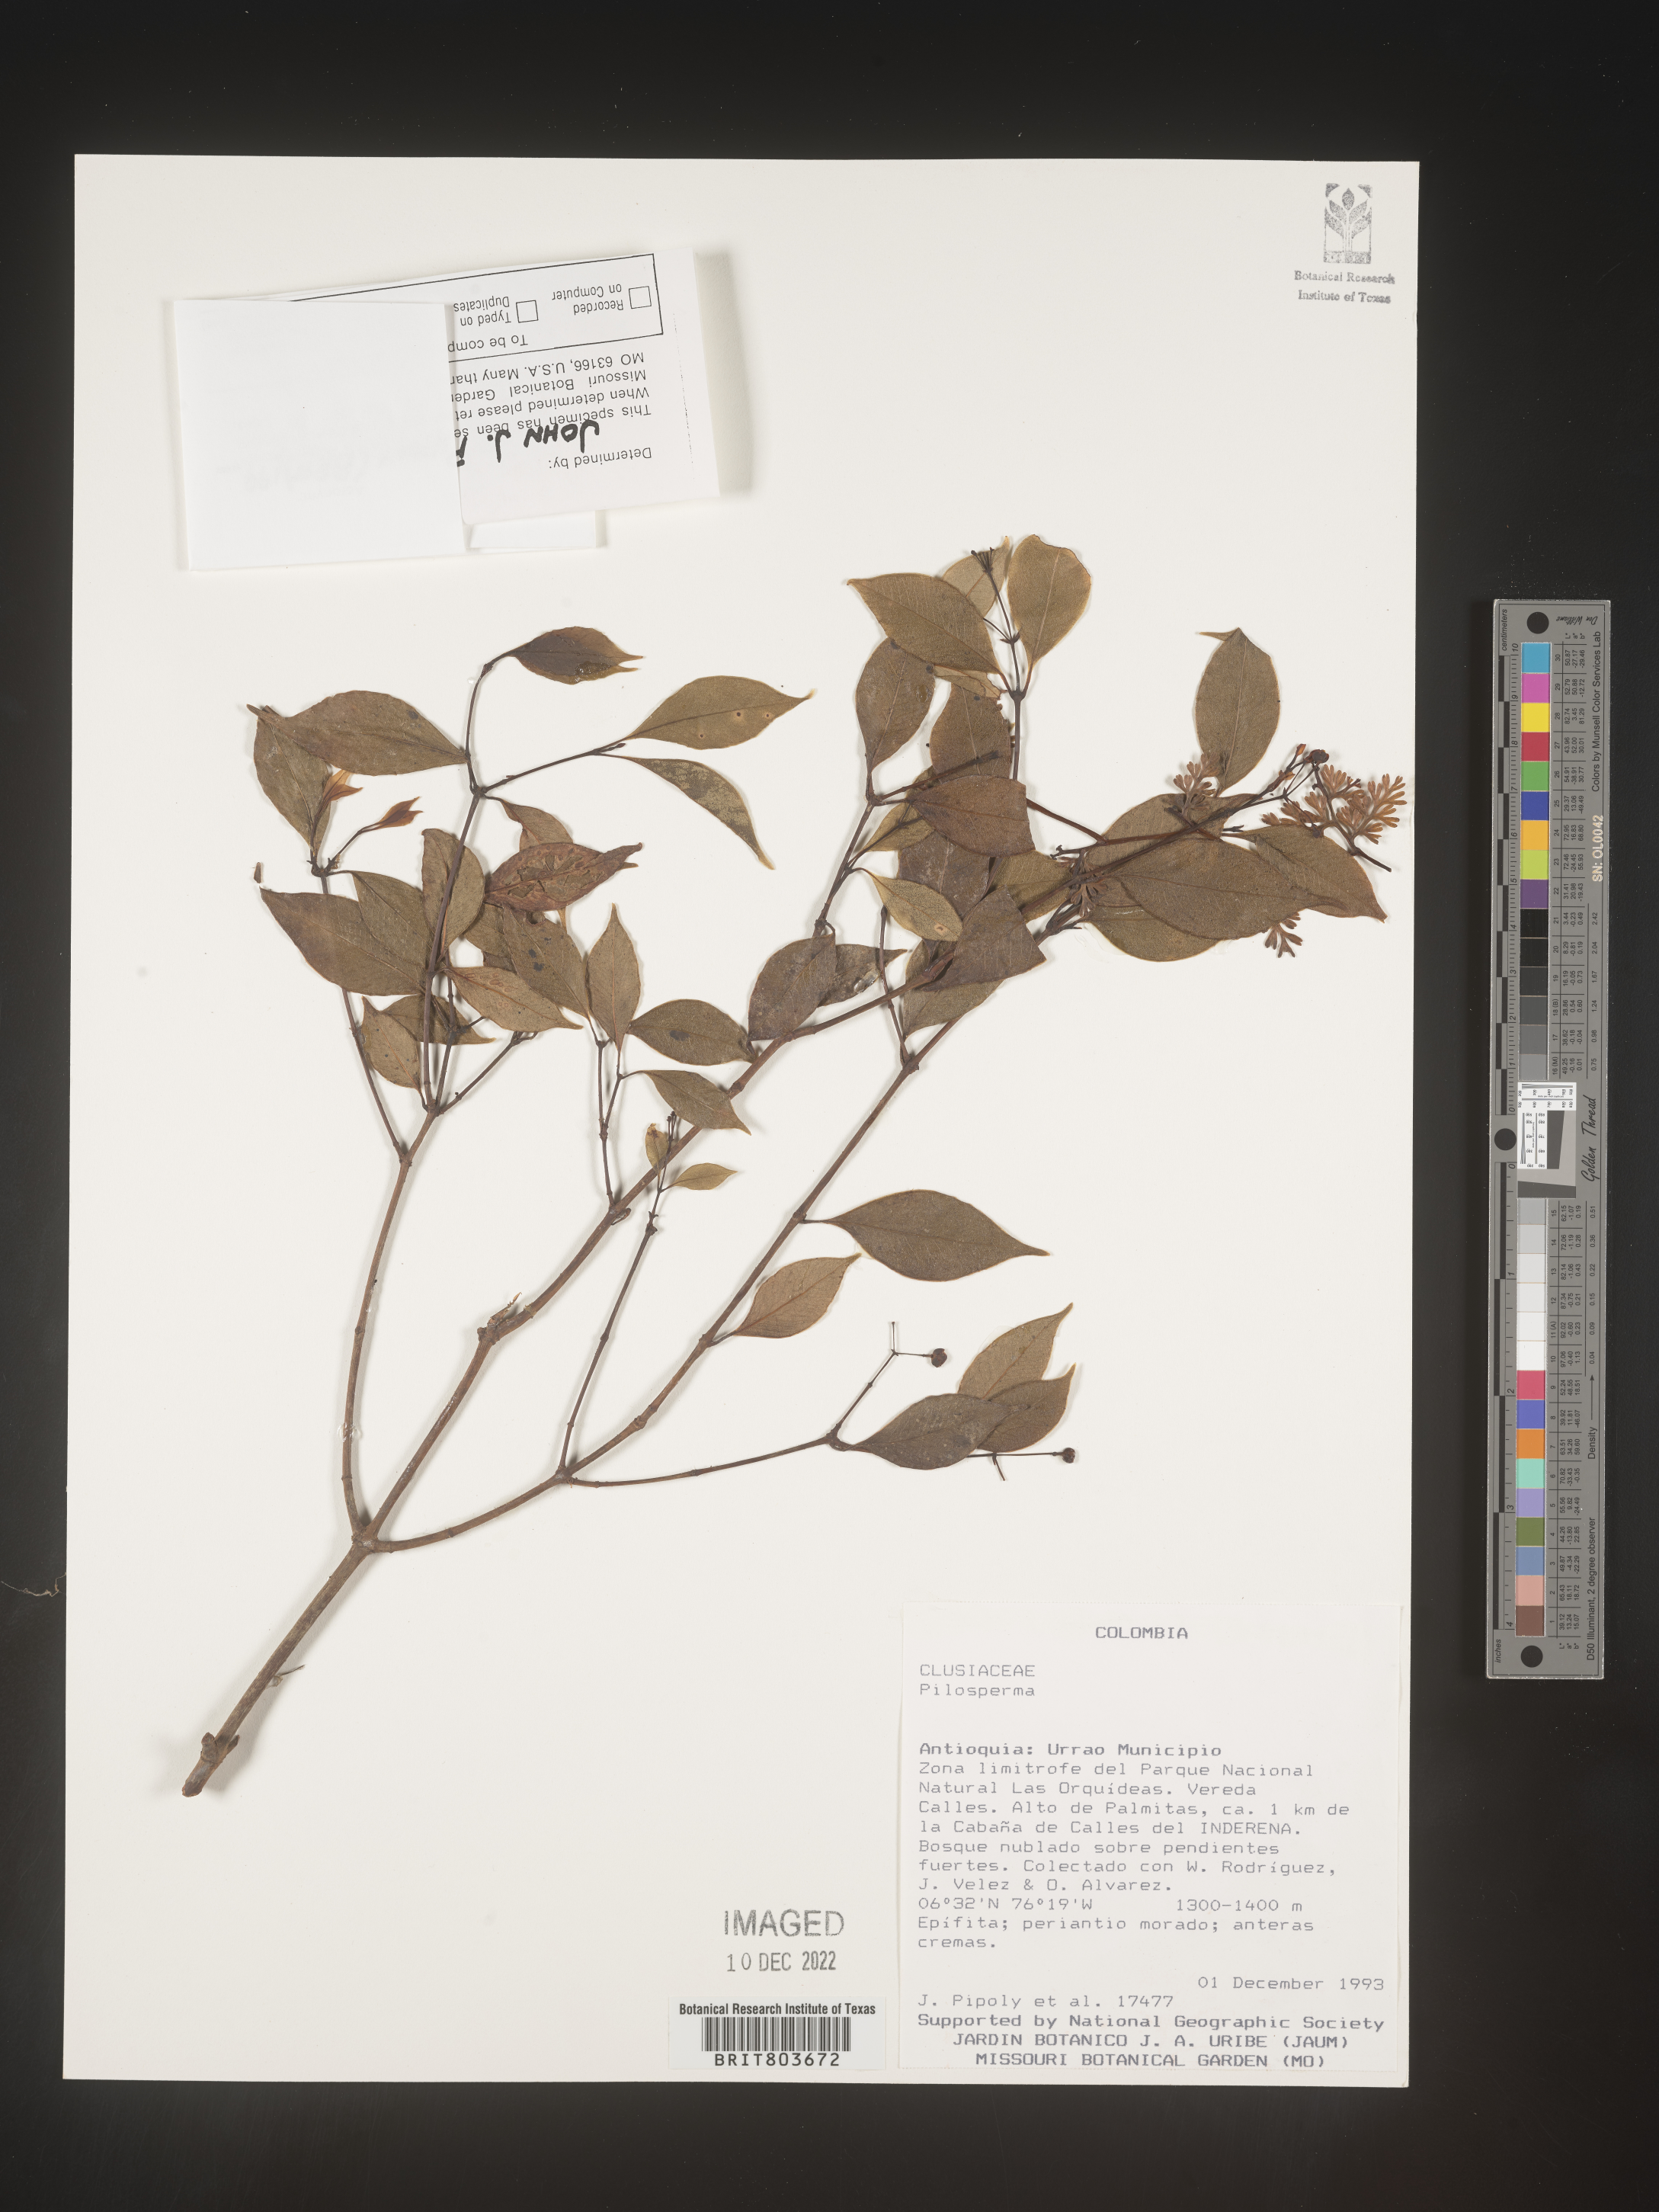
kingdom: Plantae
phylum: Tracheophyta
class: Magnoliopsida
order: Malpighiales
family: Clusiaceae
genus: Tovomita
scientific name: Tovomita
